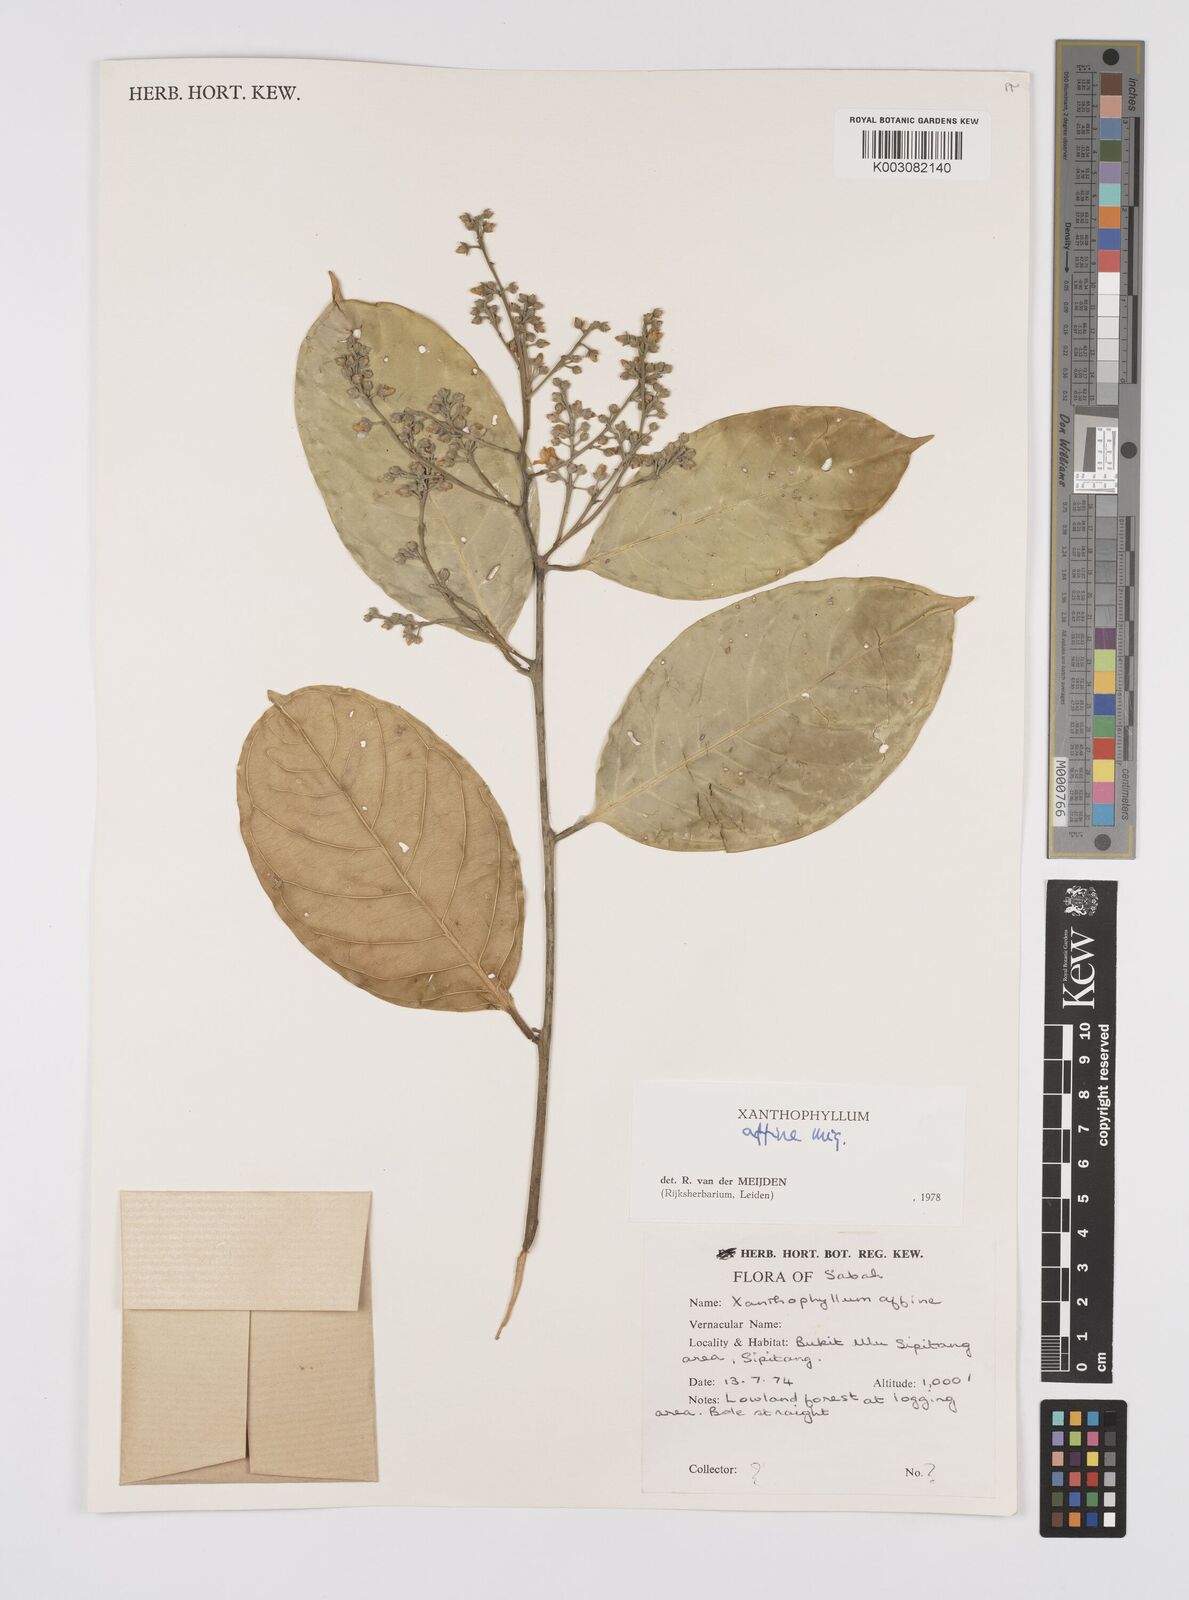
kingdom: Plantae
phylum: Tracheophyta
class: Magnoliopsida
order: Fabales
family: Polygalaceae
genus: Xanthophyllum
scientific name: Xanthophyllum flavescens
